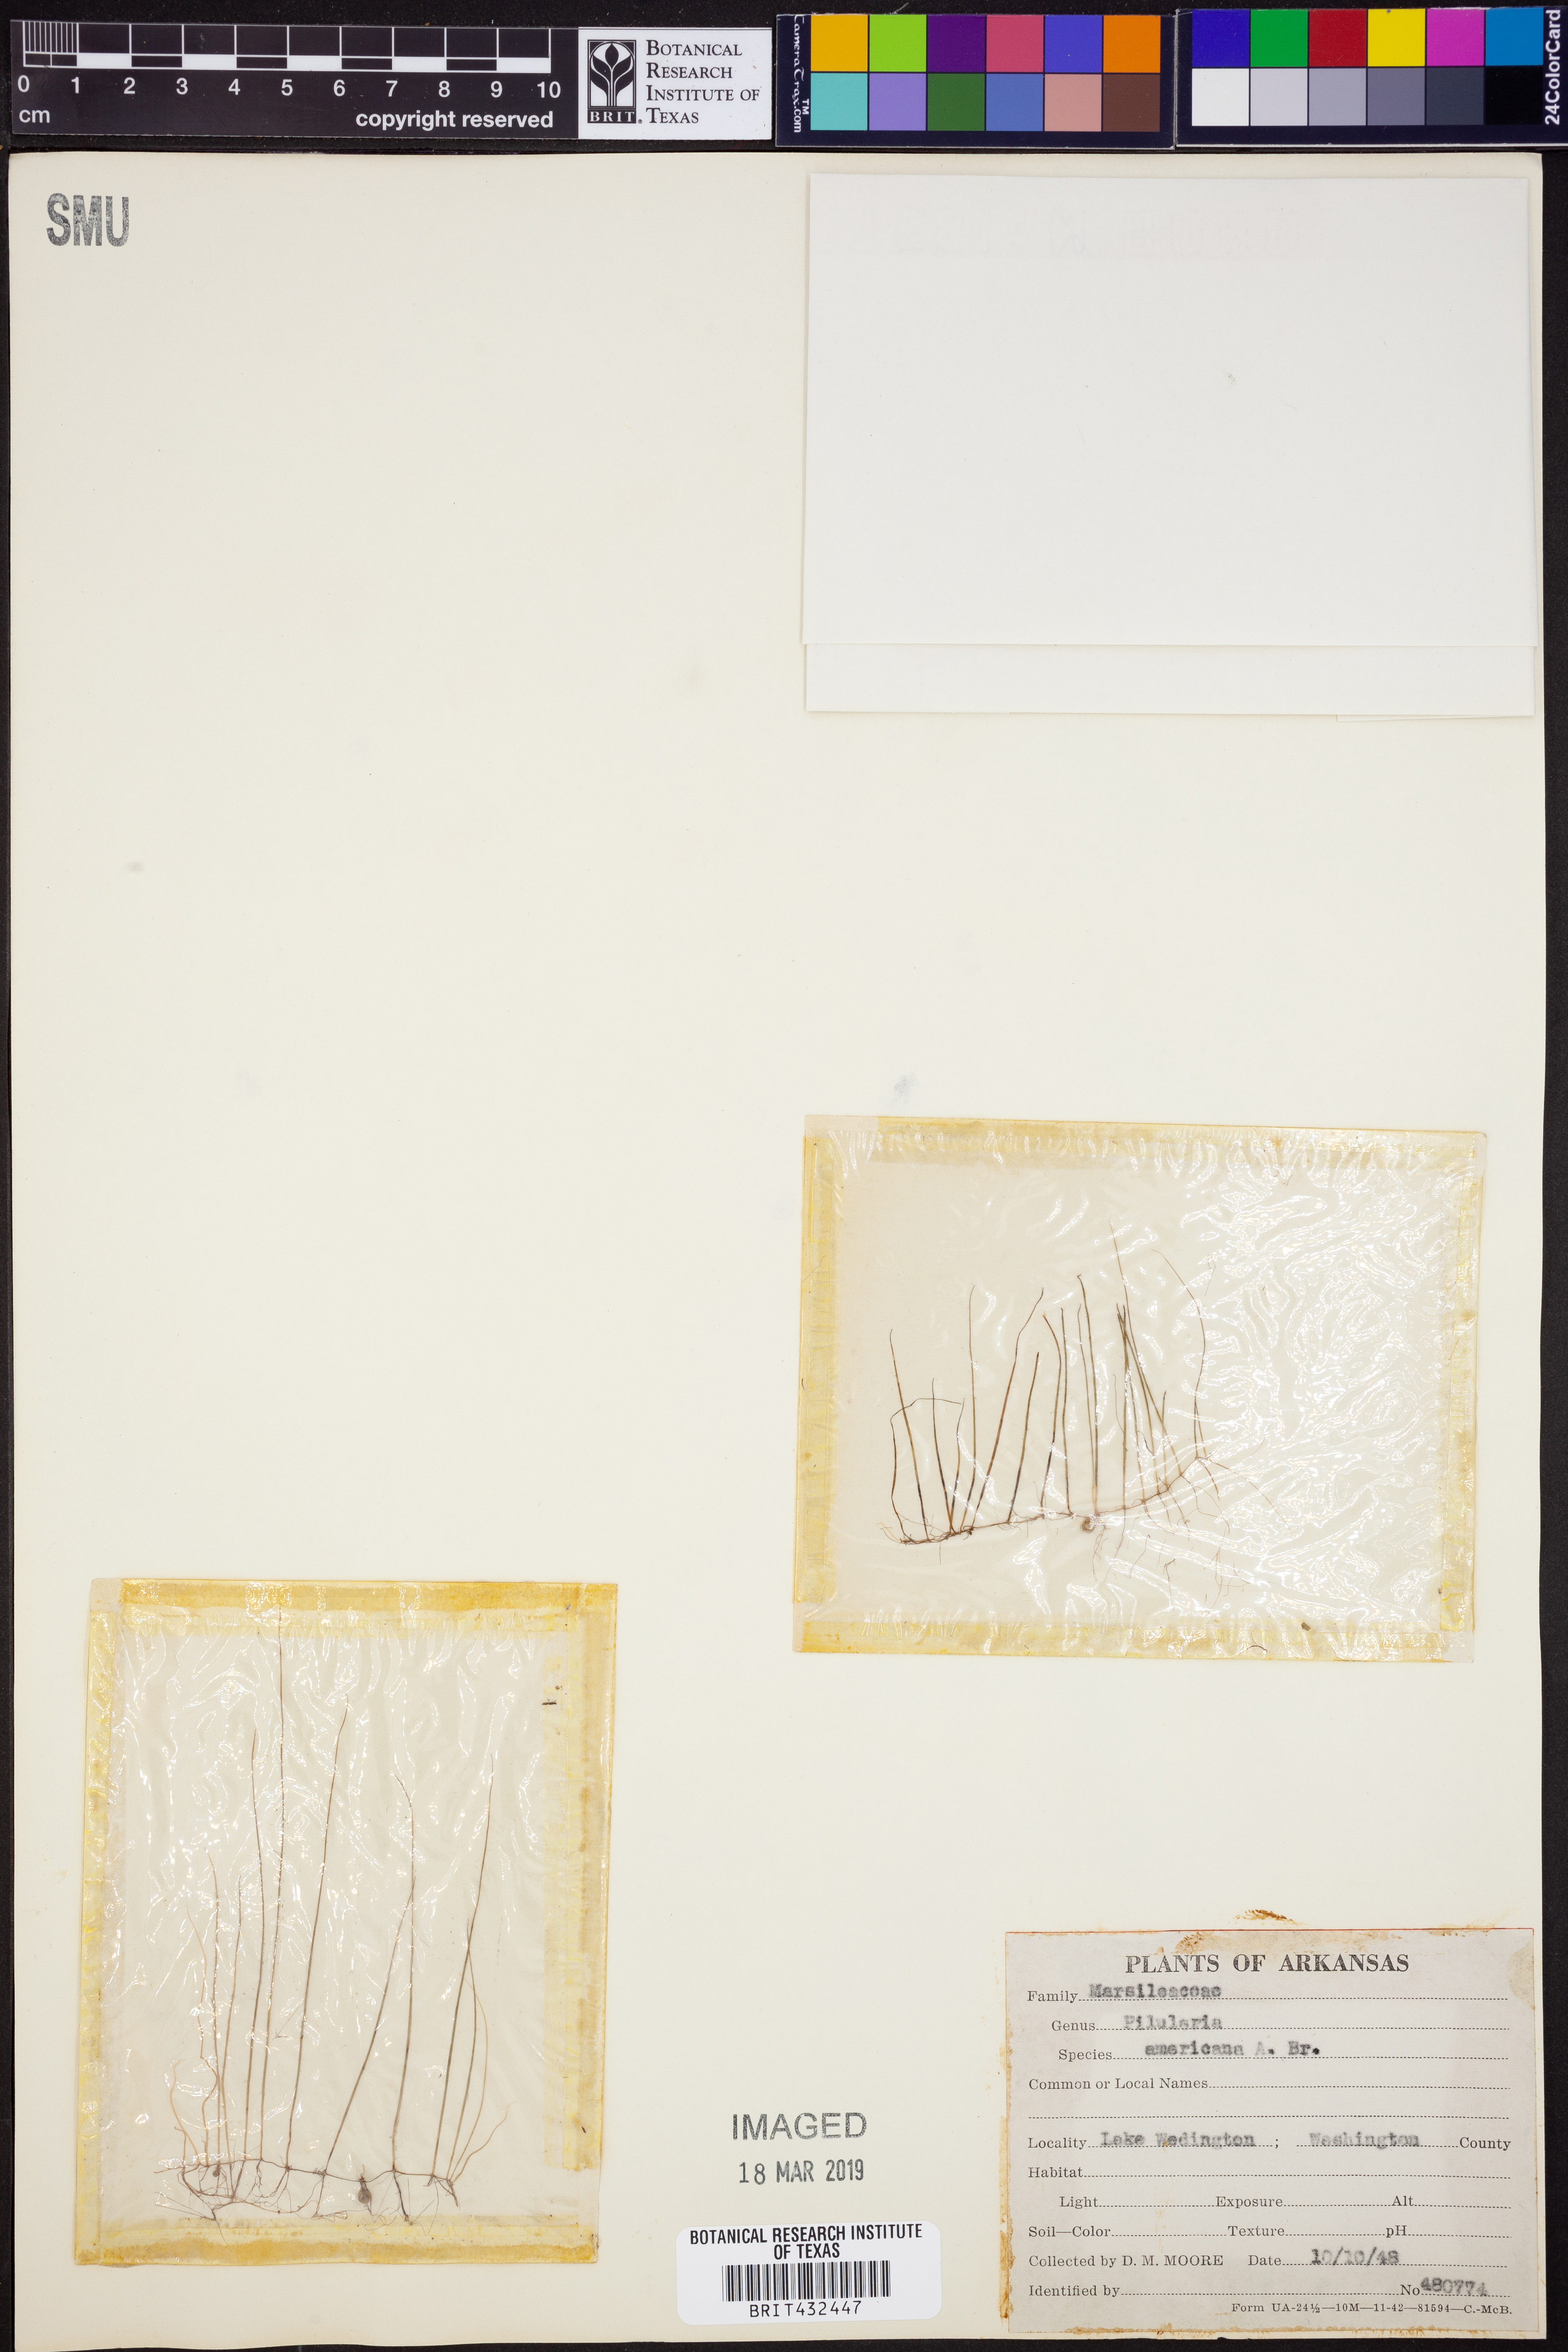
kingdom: Plantae
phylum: Tracheophyta
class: Polypodiopsida
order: Salviniales
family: Marsileaceae
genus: Pilularia
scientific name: Pilularia americana
